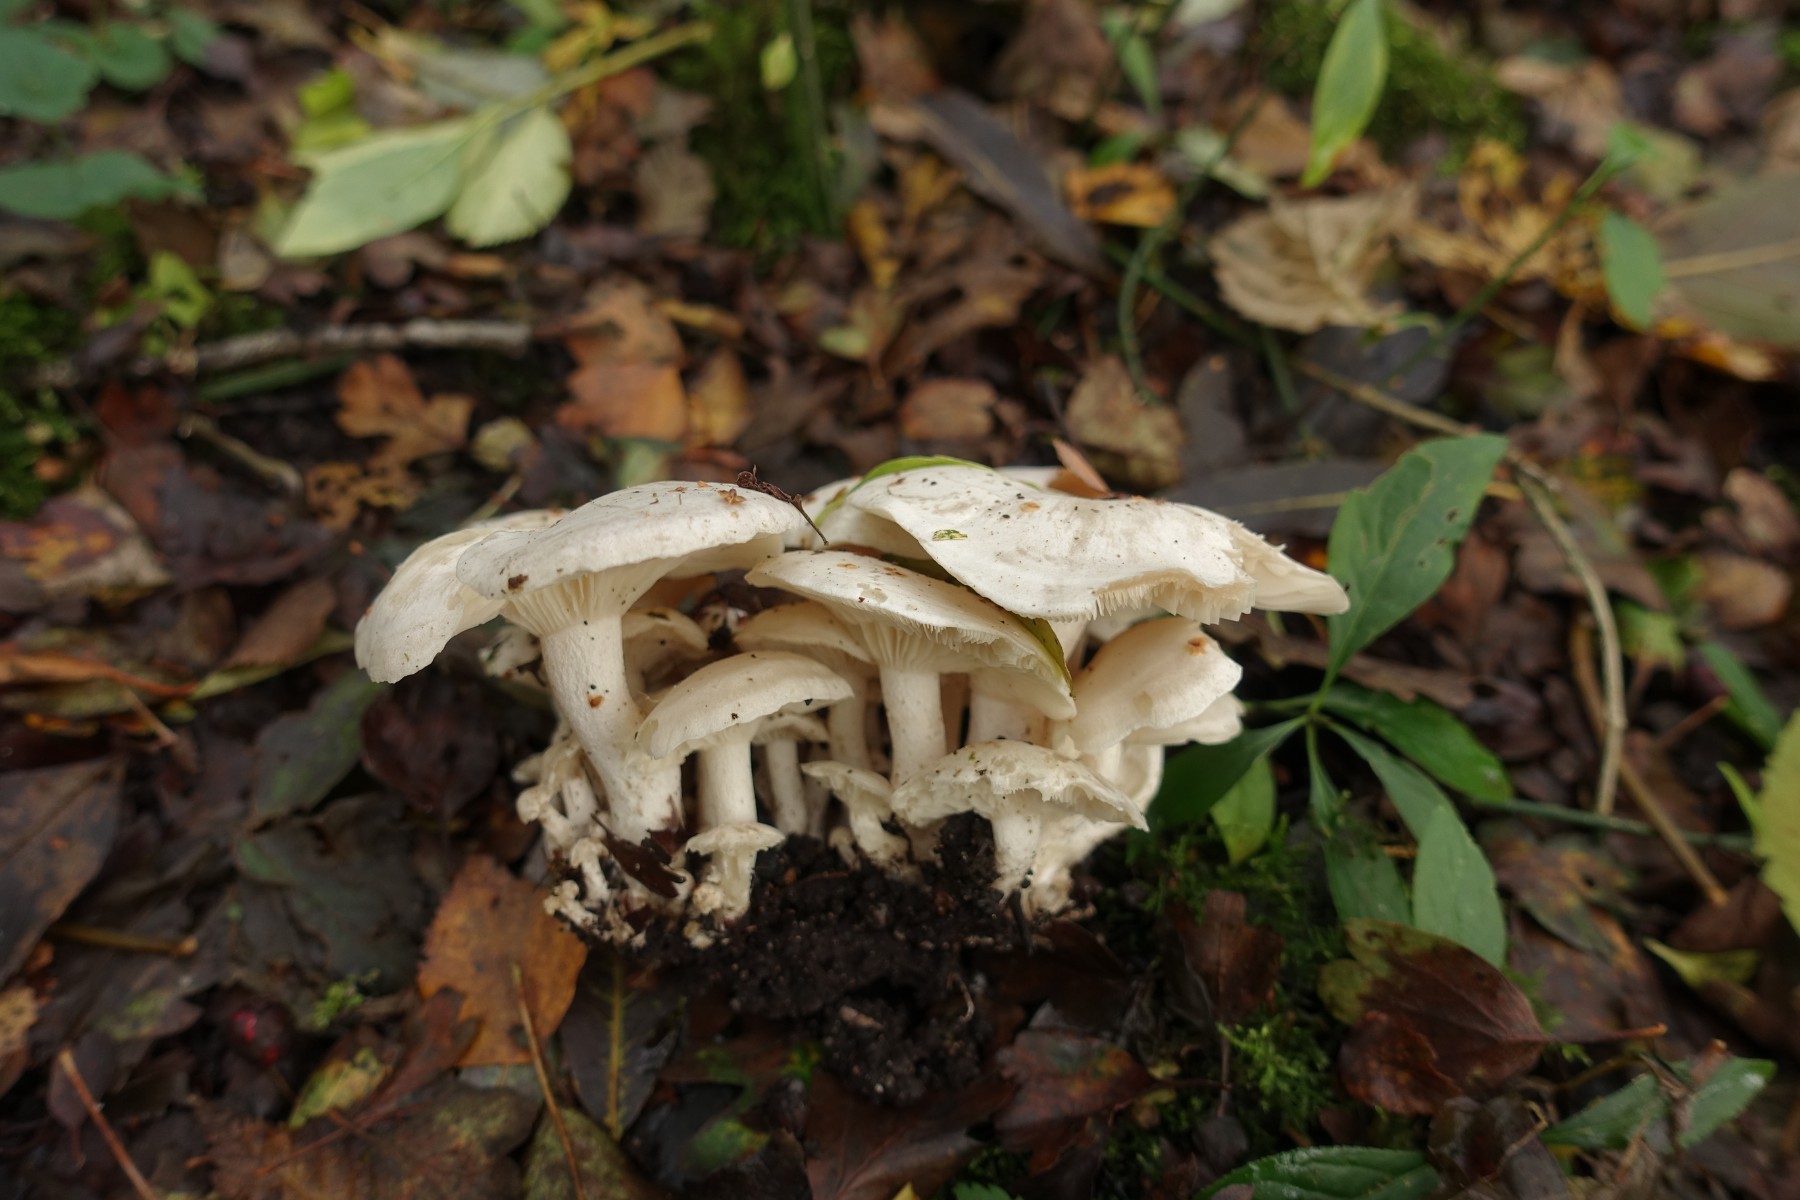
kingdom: Fungi
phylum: Basidiomycota
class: Agaricomycetes
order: Agaricales
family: Tricholomataceae
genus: Leucocybe
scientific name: Leucocybe connata
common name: knippe-tragthat
